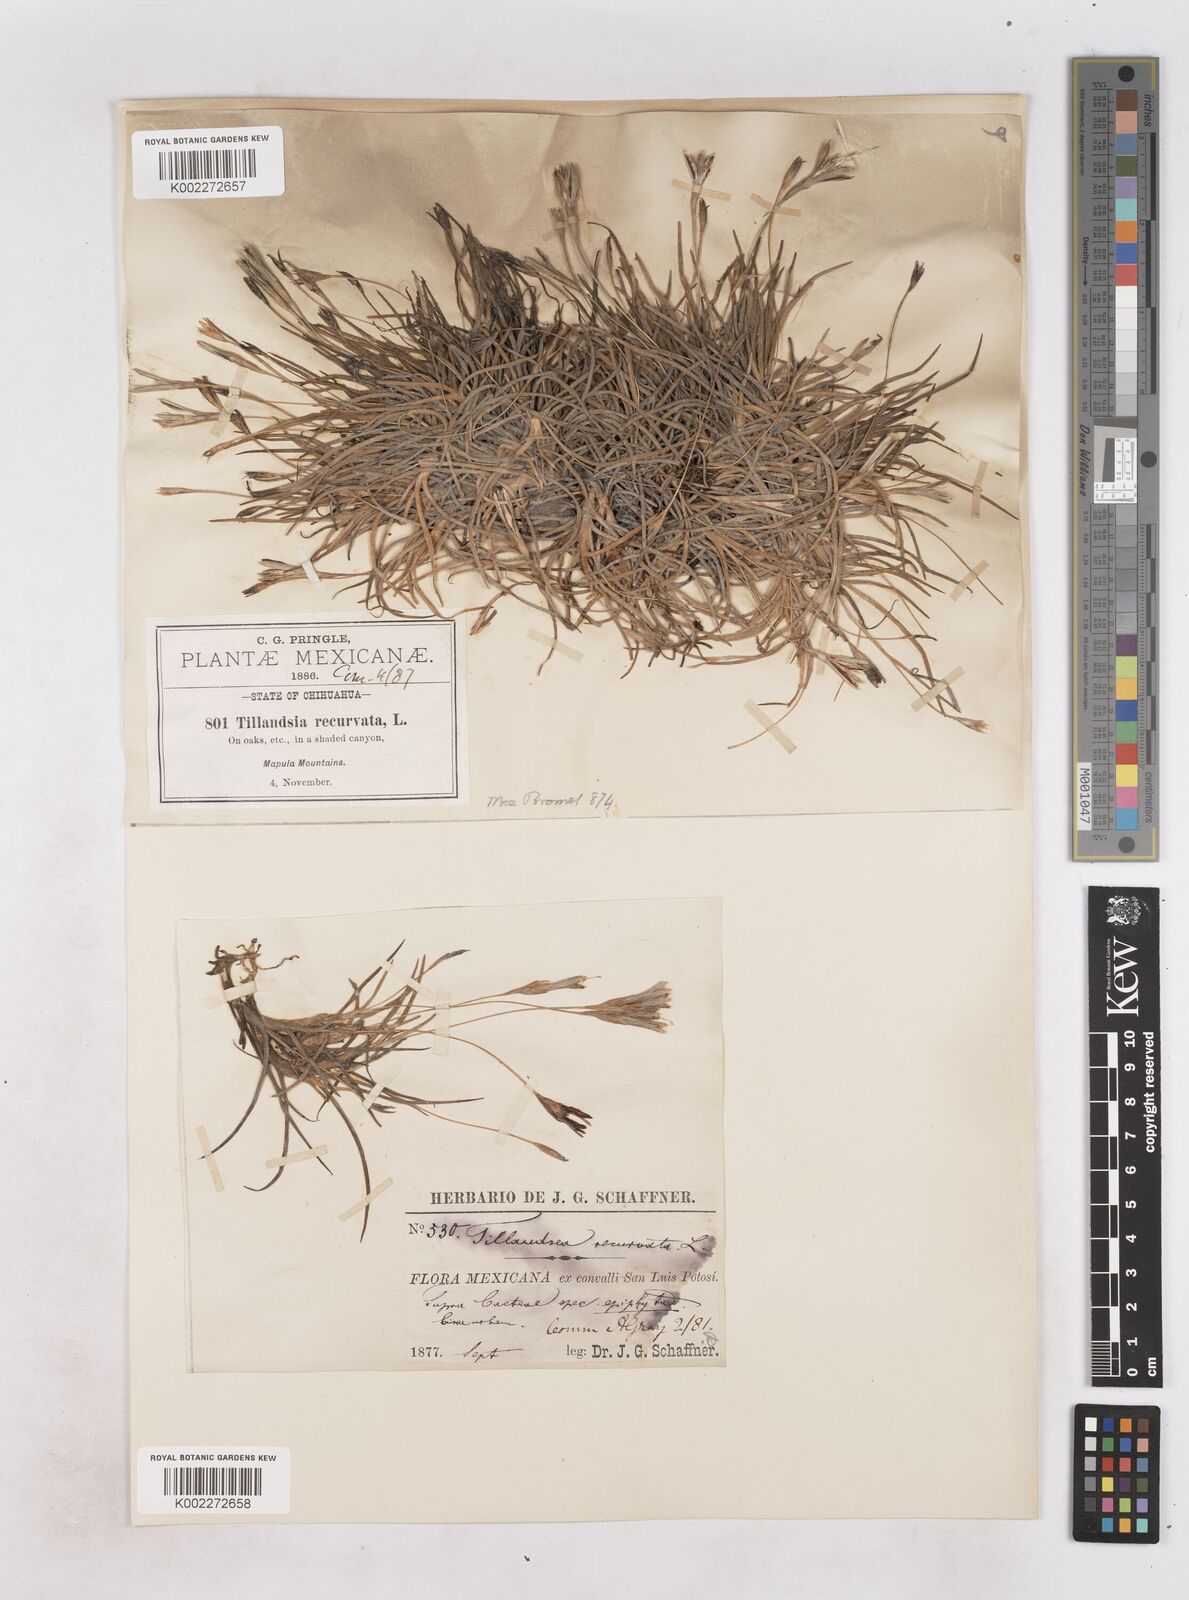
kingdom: Plantae
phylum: Tracheophyta
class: Liliopsida
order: Poales
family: Bromeliaceae
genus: Tillandsia
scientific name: Tillandsia recurvata
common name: Small ballmoss
